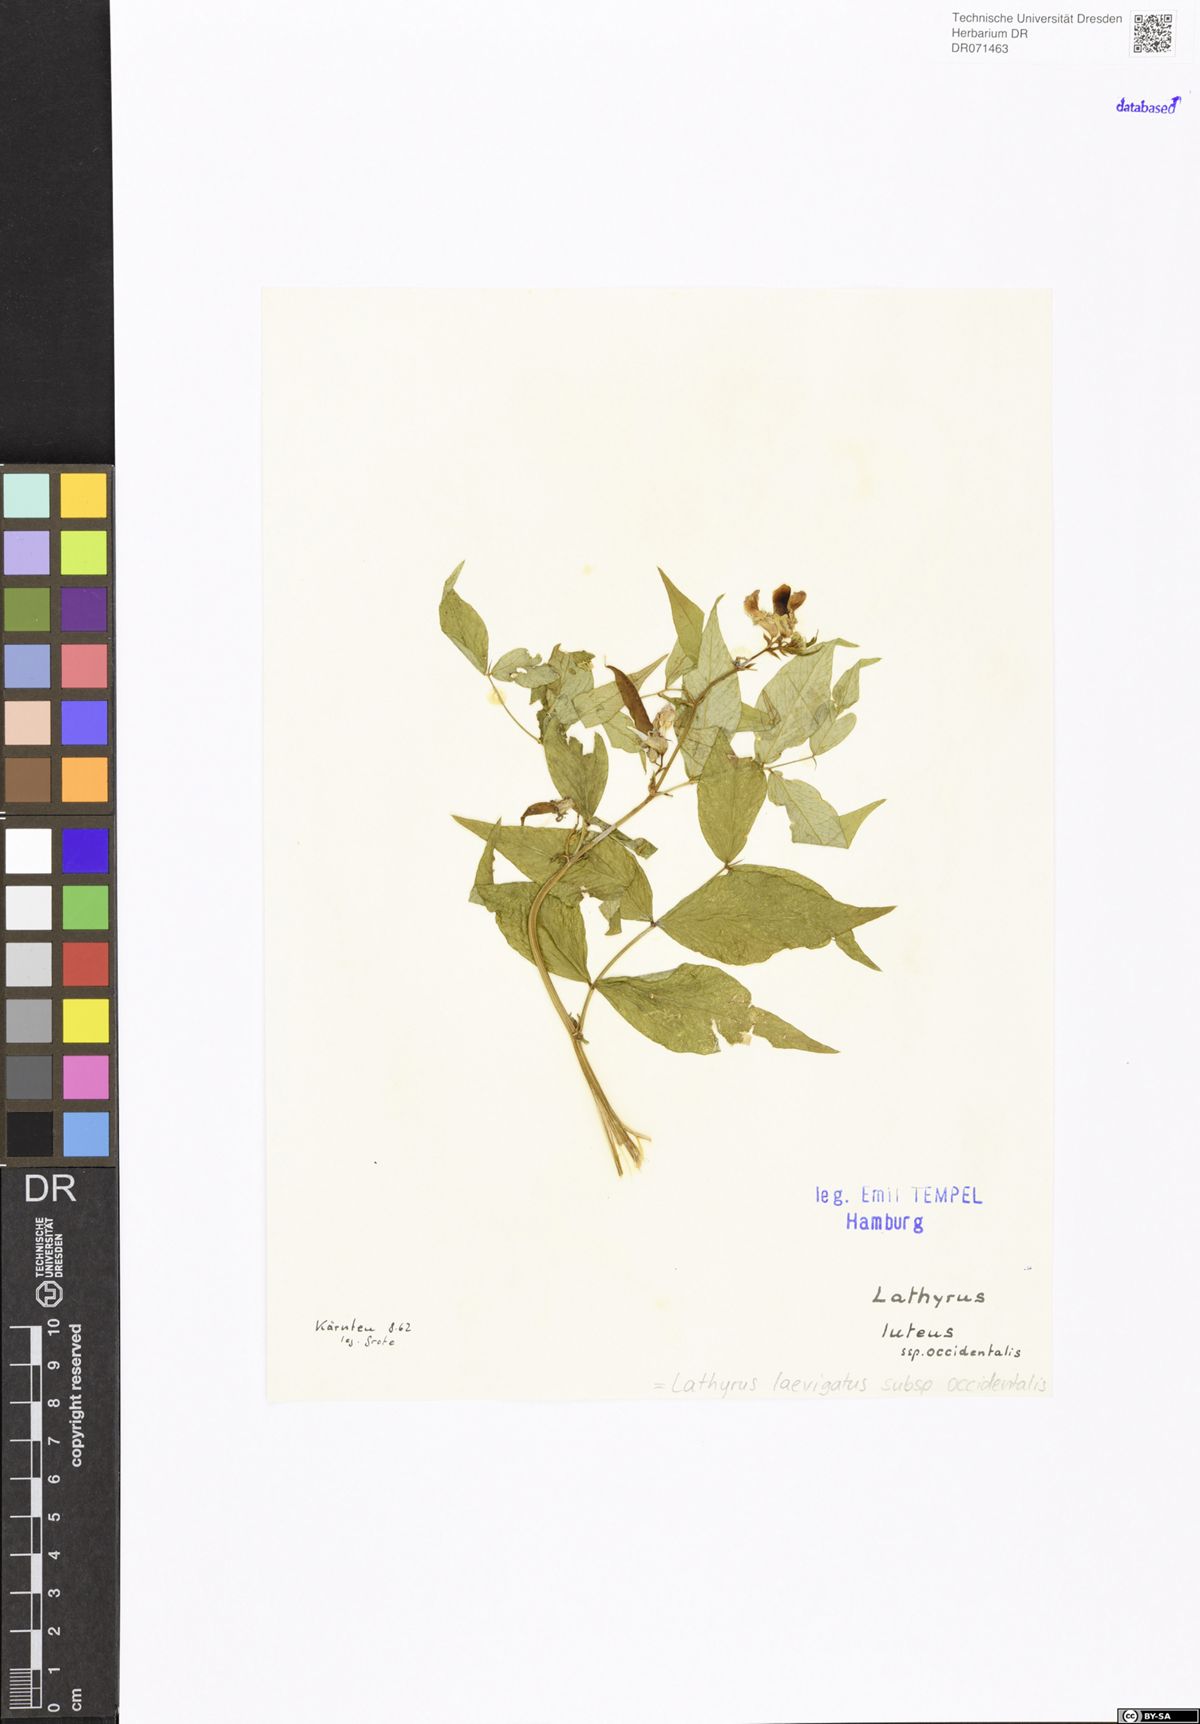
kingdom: Plantae
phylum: Tracheophyta
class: Magnoliopsida
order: Fabales
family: Fabaceae
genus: Lathyrus
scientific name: Lathyrus laevigatus
